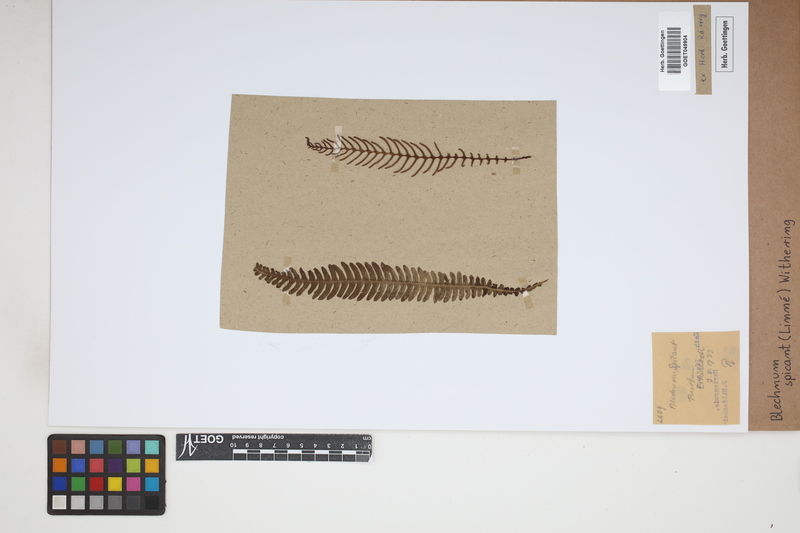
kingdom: Plantae
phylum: Tracheophyta
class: Polypodiopsida
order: Polypodiales
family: Blechnaceae
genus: Struthiopteris
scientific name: Struthiopteris spicant
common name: Deer fern
